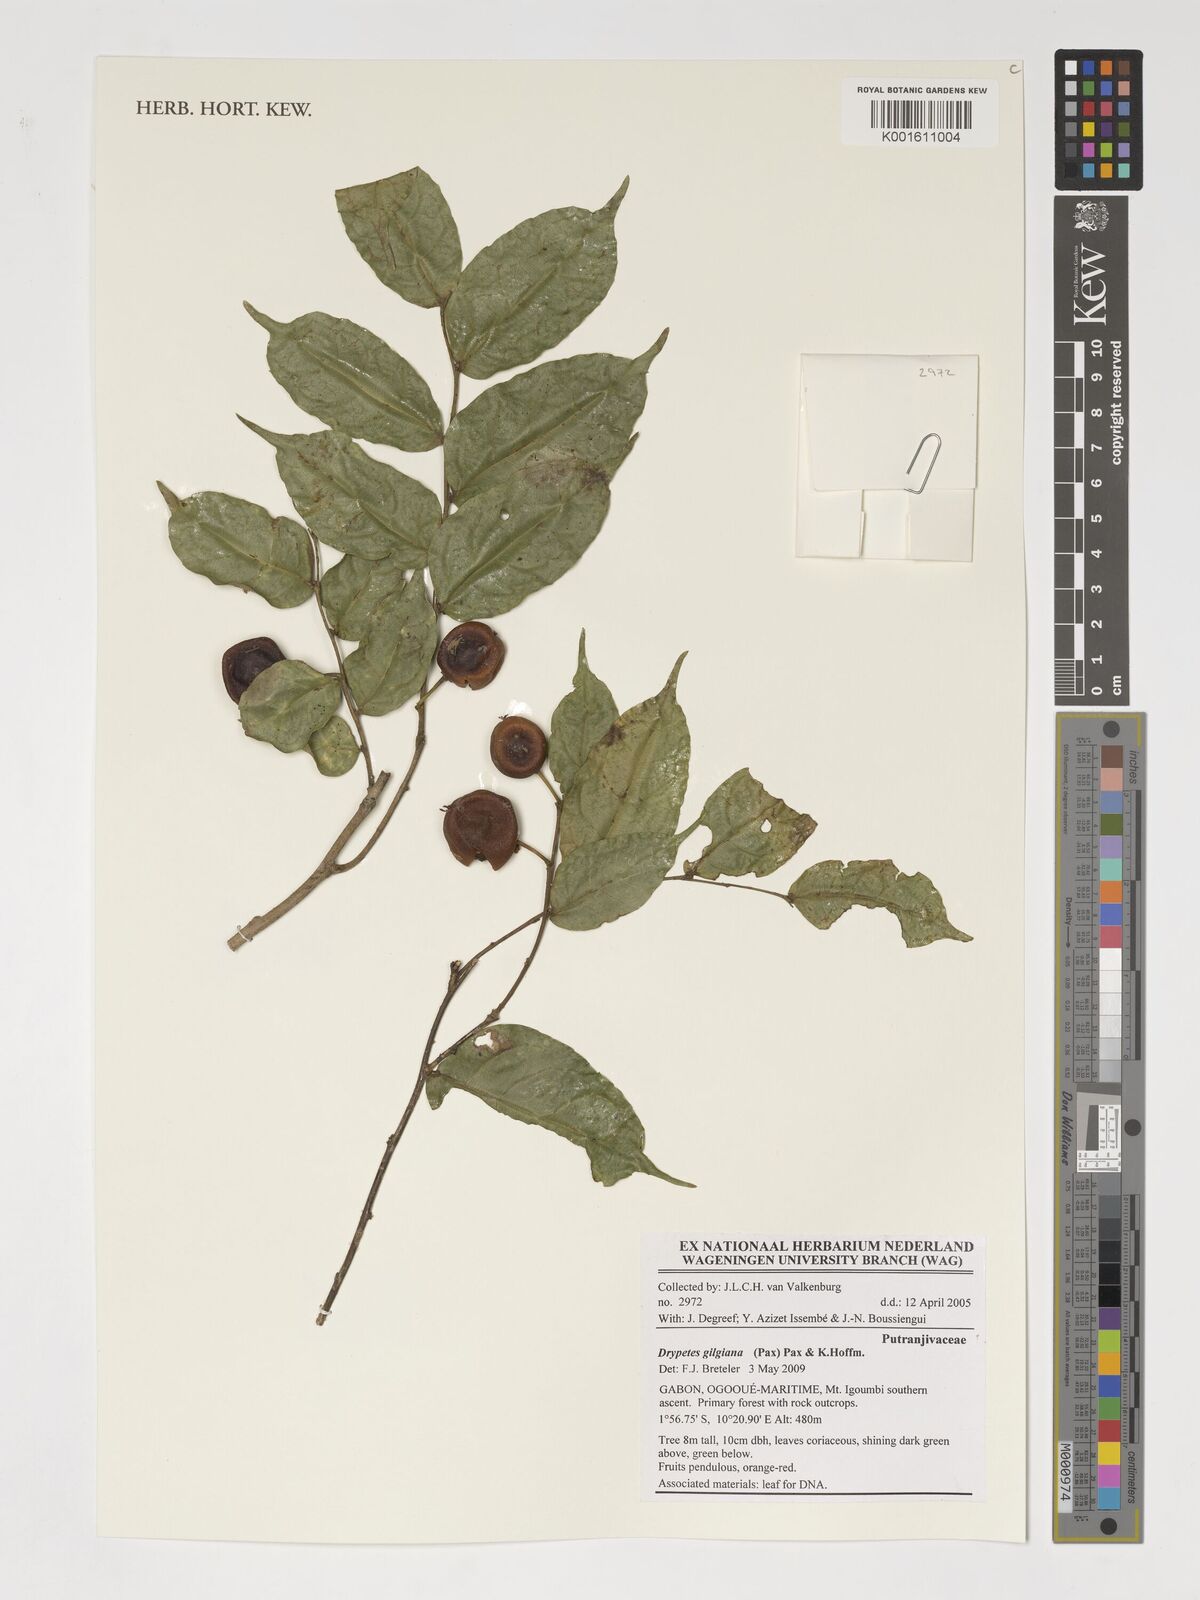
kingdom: Plantae
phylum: Tracheophyta
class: Magnoliopsida
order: Malpighiales
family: Putranjivaceae
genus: Drypetes
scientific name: Drypetes gilgiana
